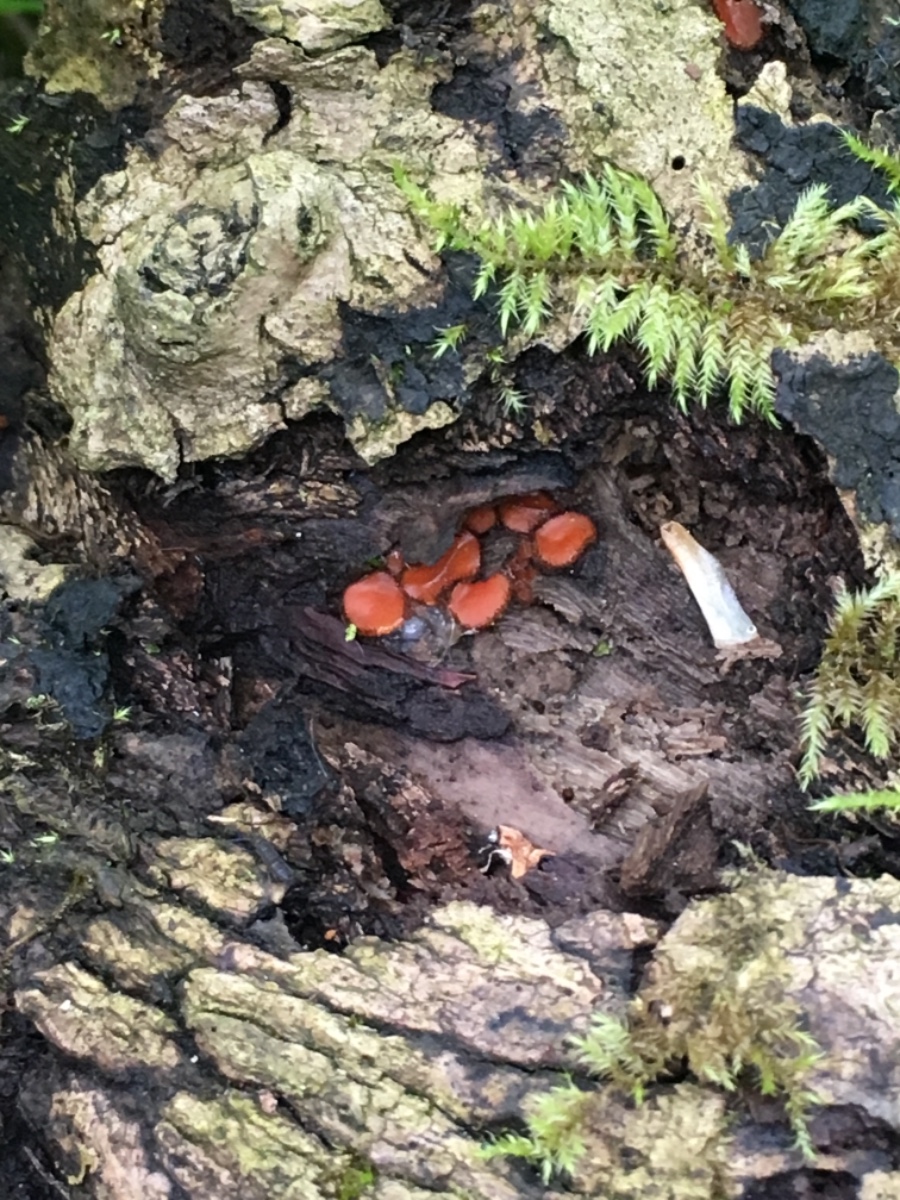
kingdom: Fungi
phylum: Ascomycota
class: Pezizomycetes
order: Pezizales
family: Pyronemataceae
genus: Scutellinia
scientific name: Scutellinia scutellata
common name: frynset skjoldbæger
